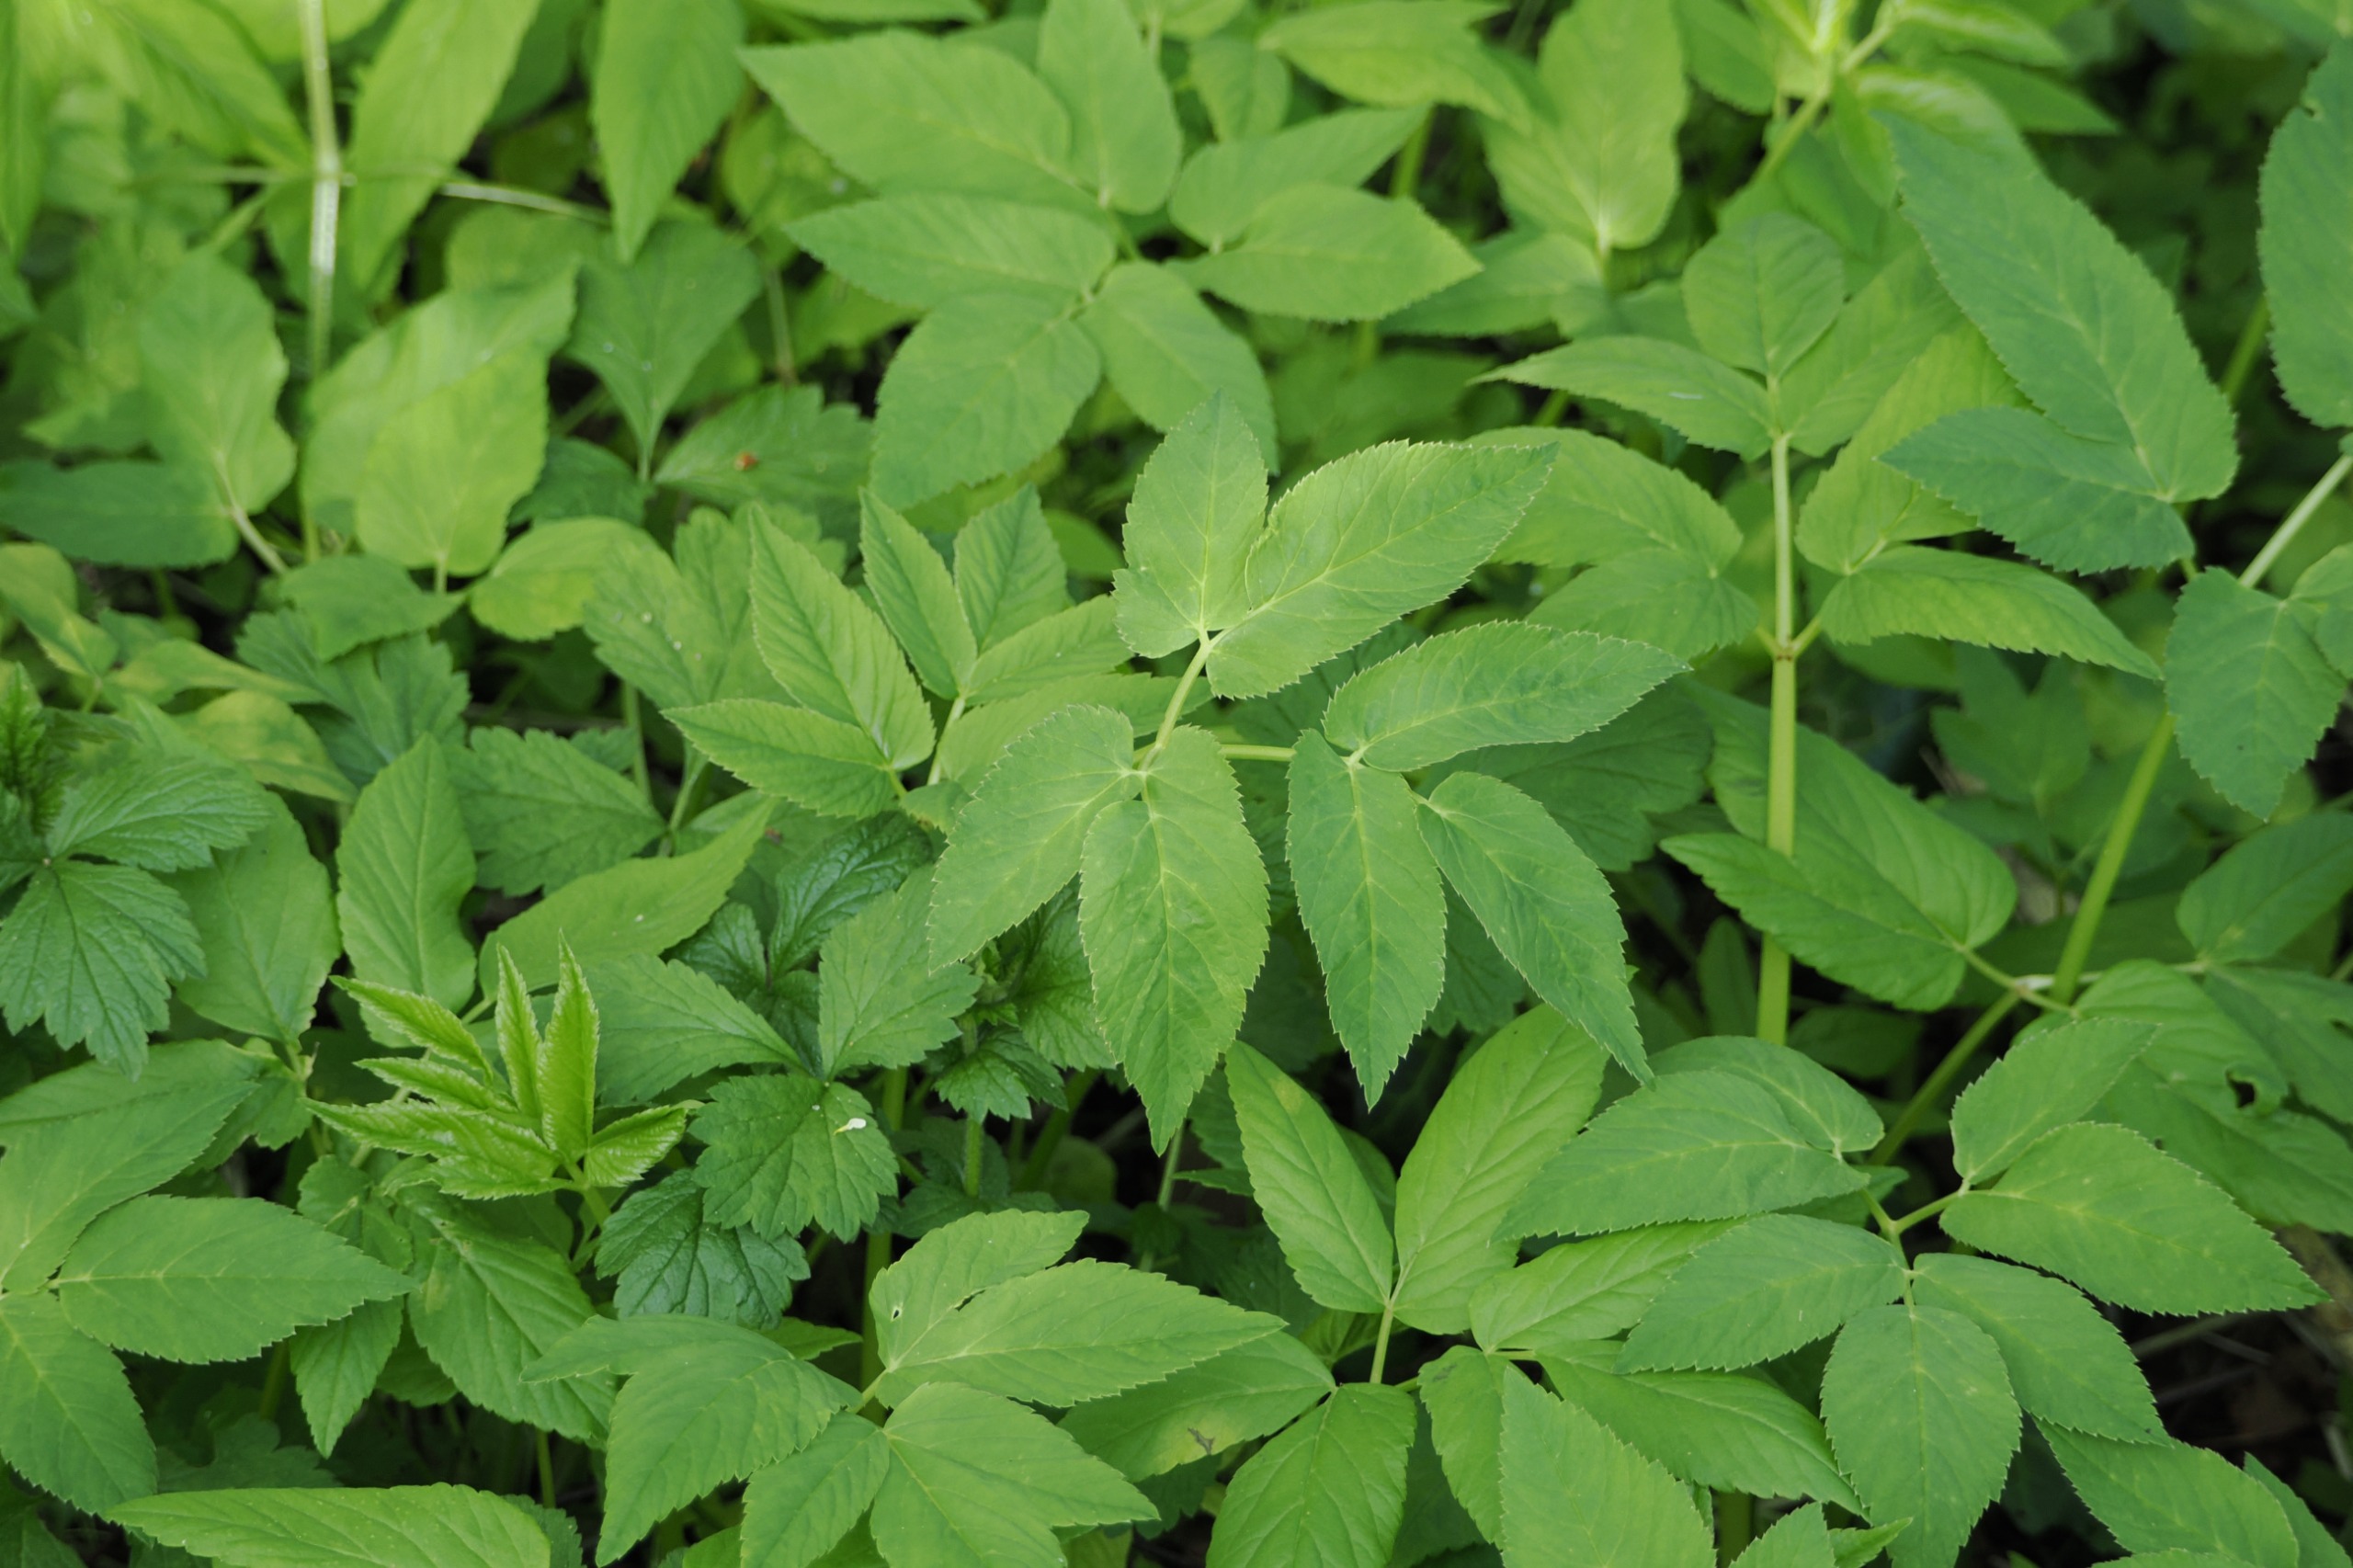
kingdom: Plantae
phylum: Tracheophyta
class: Magnoliopsida
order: Apiales
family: Apiaceae
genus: Aegopodium
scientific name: Aegopodium podagraria
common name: Skvalderkål
